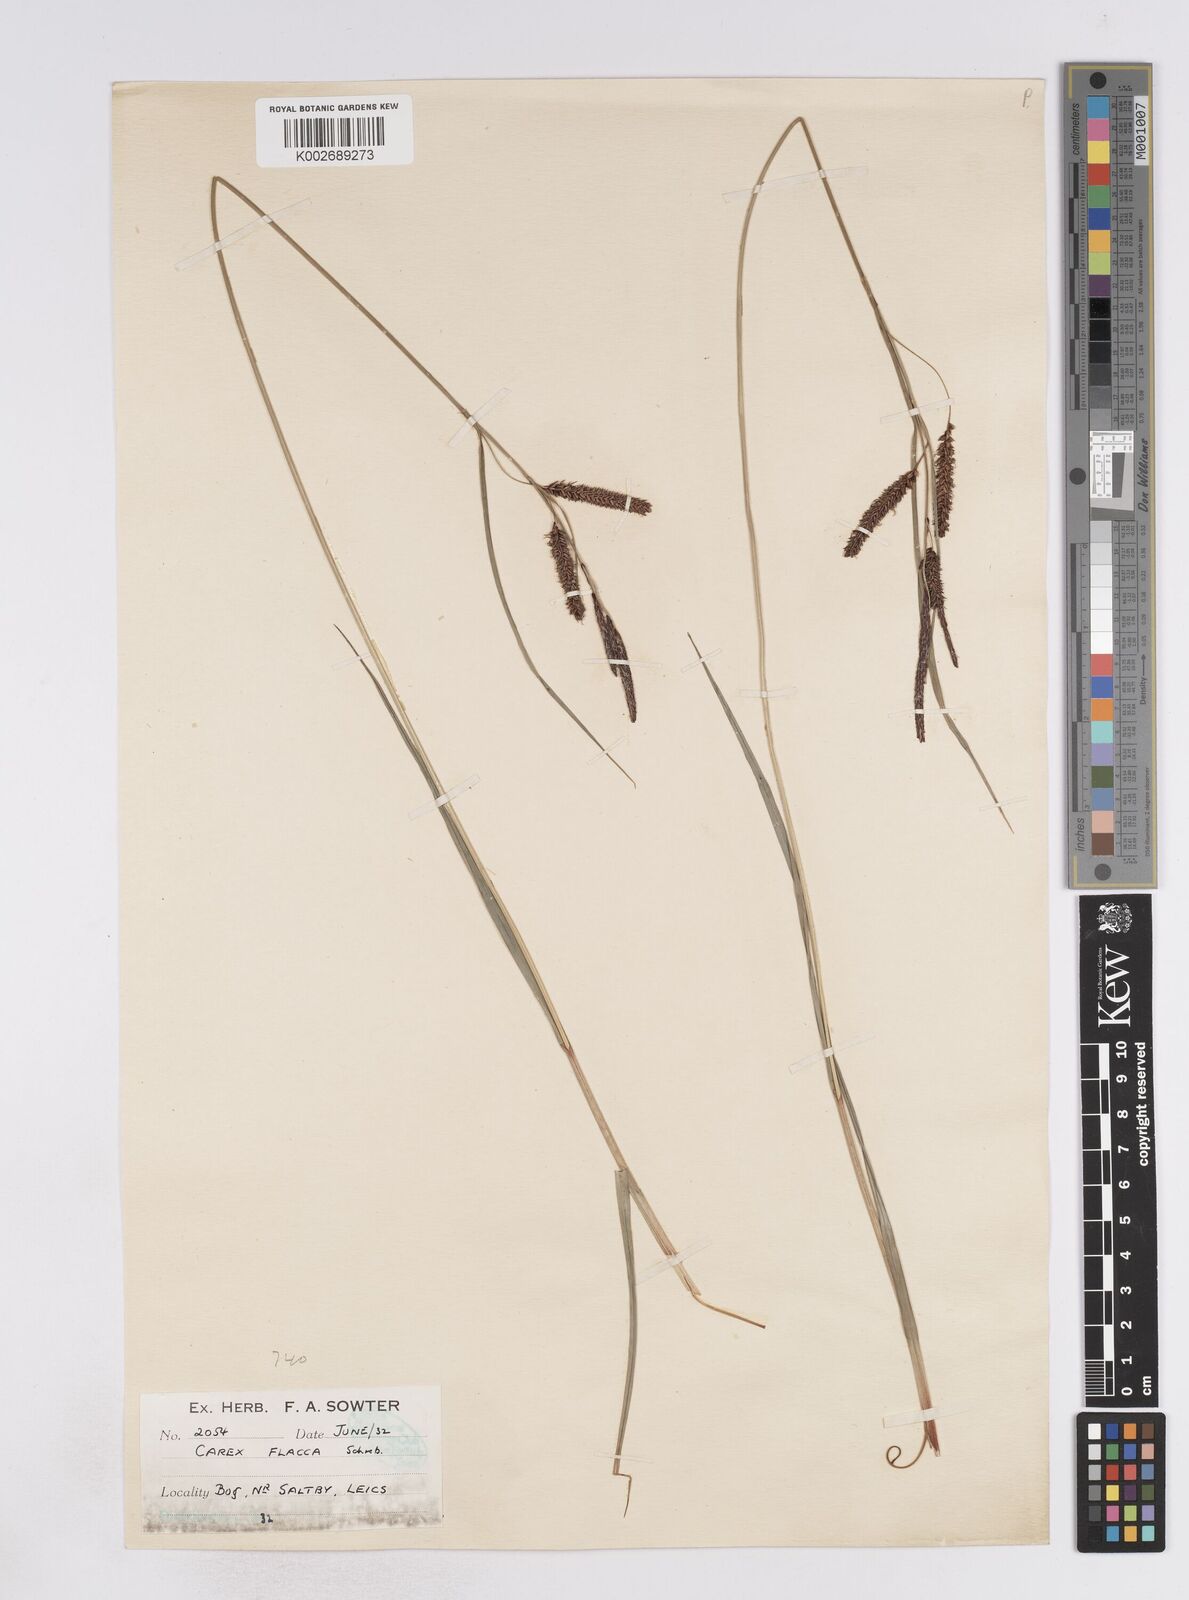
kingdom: Plantae
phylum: Tracheophyta
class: Liliopsida
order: Poales
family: Cyperaceae
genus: Carex
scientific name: Carex flacca
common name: Glaucous sedge
